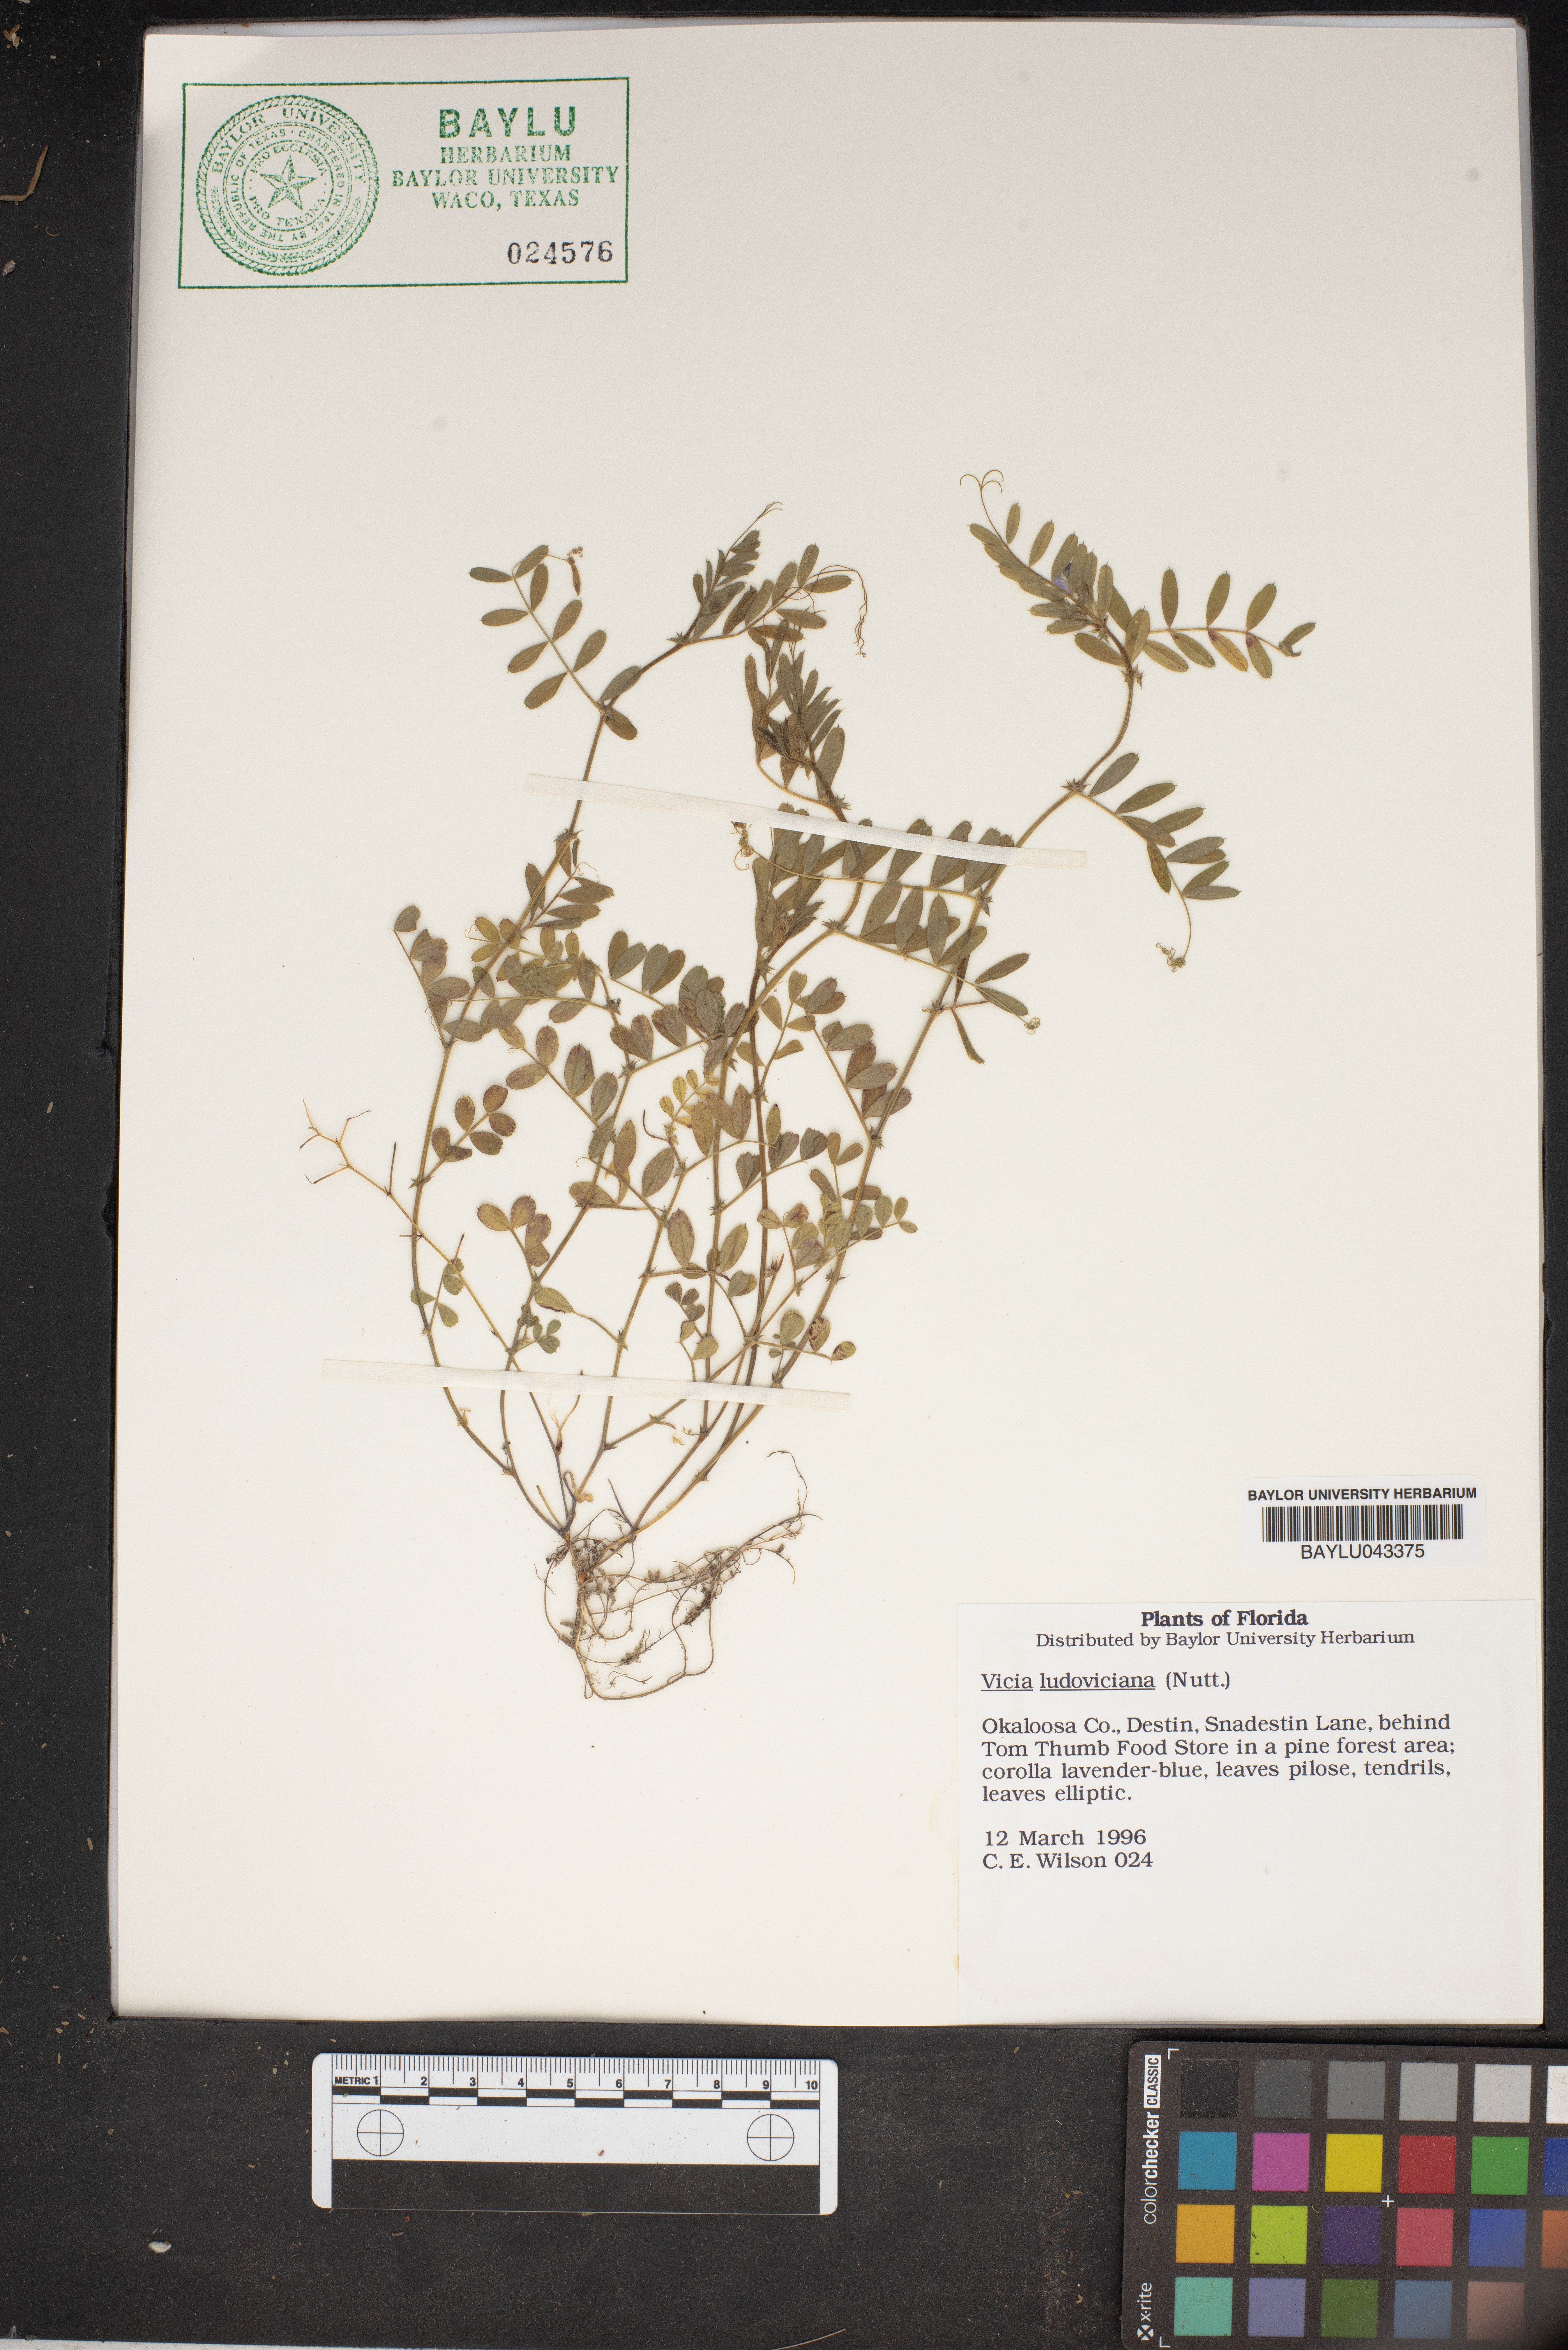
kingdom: Plantae
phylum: Tracheophyta
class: Magnoliopsida
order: Fabales
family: Fabaceae
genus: Vicia
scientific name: Vicia ludoviciana
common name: Louisiana vetch
